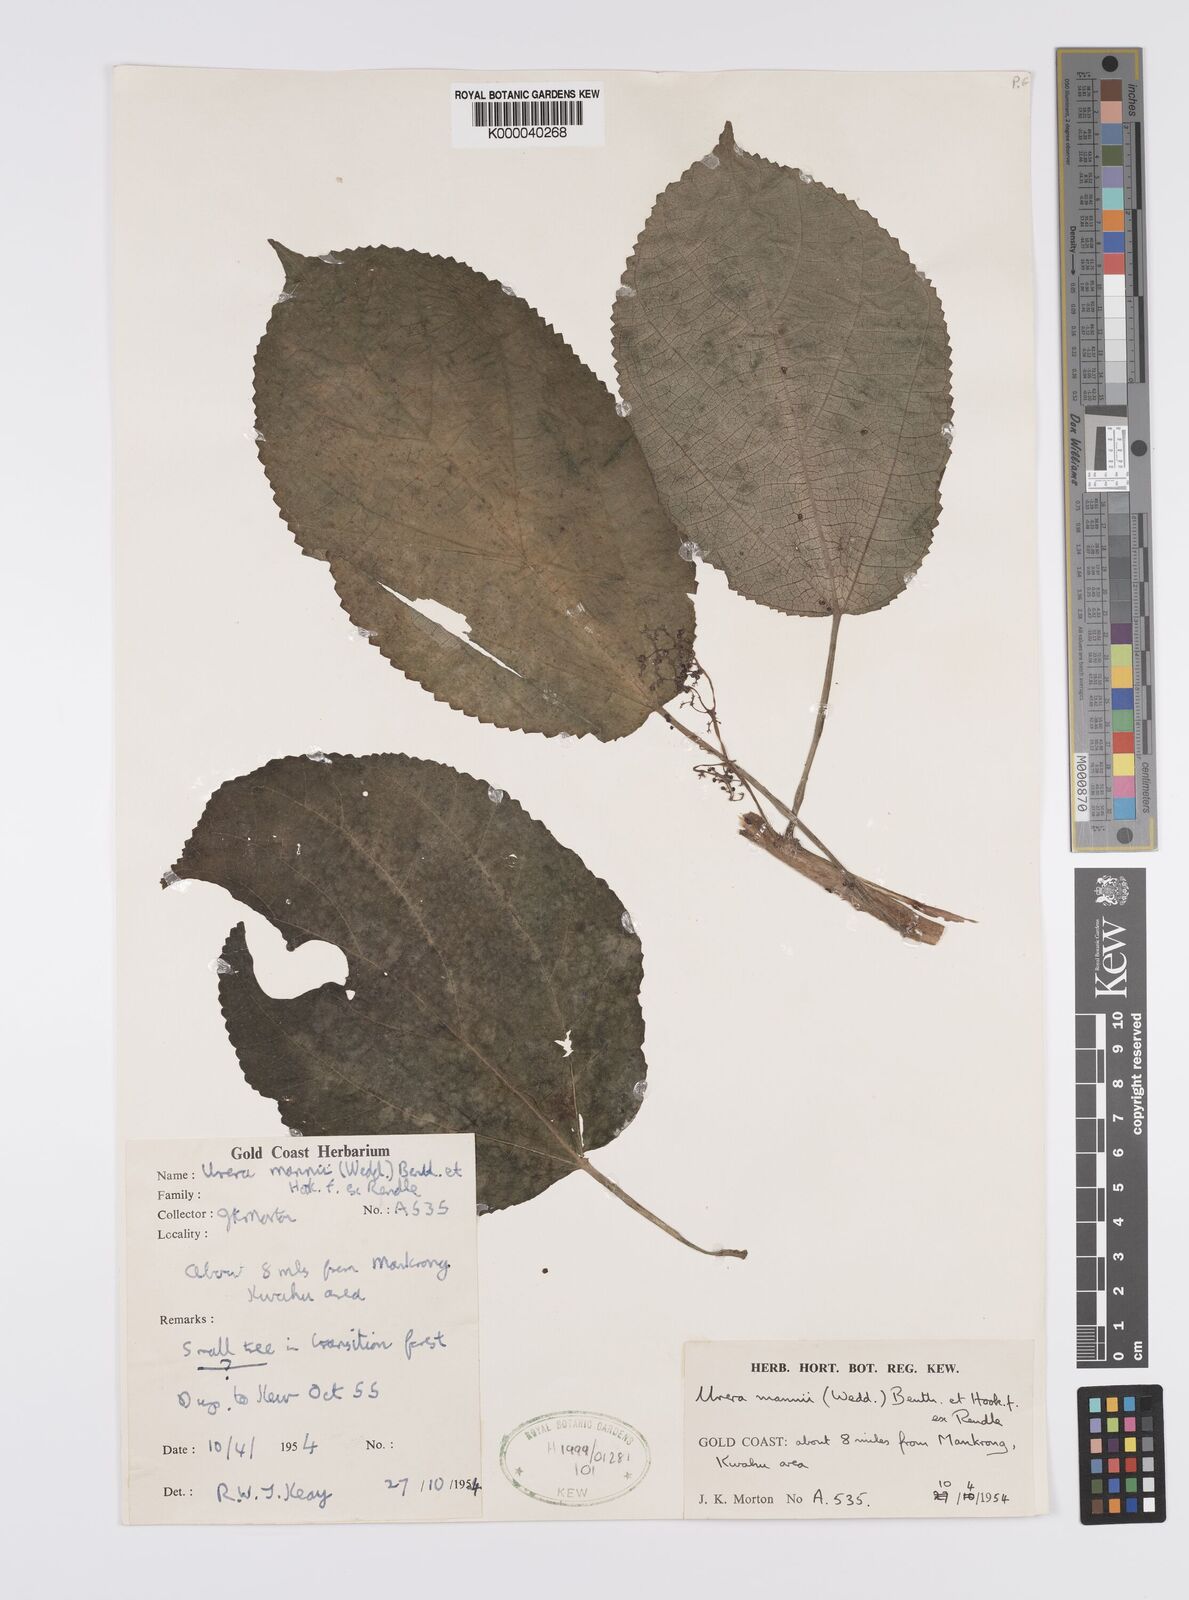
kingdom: Plantae
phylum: Tracheophyta
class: Magnoliopsida
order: Rosales
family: Urticaceae
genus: Scepocarpus
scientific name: Scepocarpus mannii
